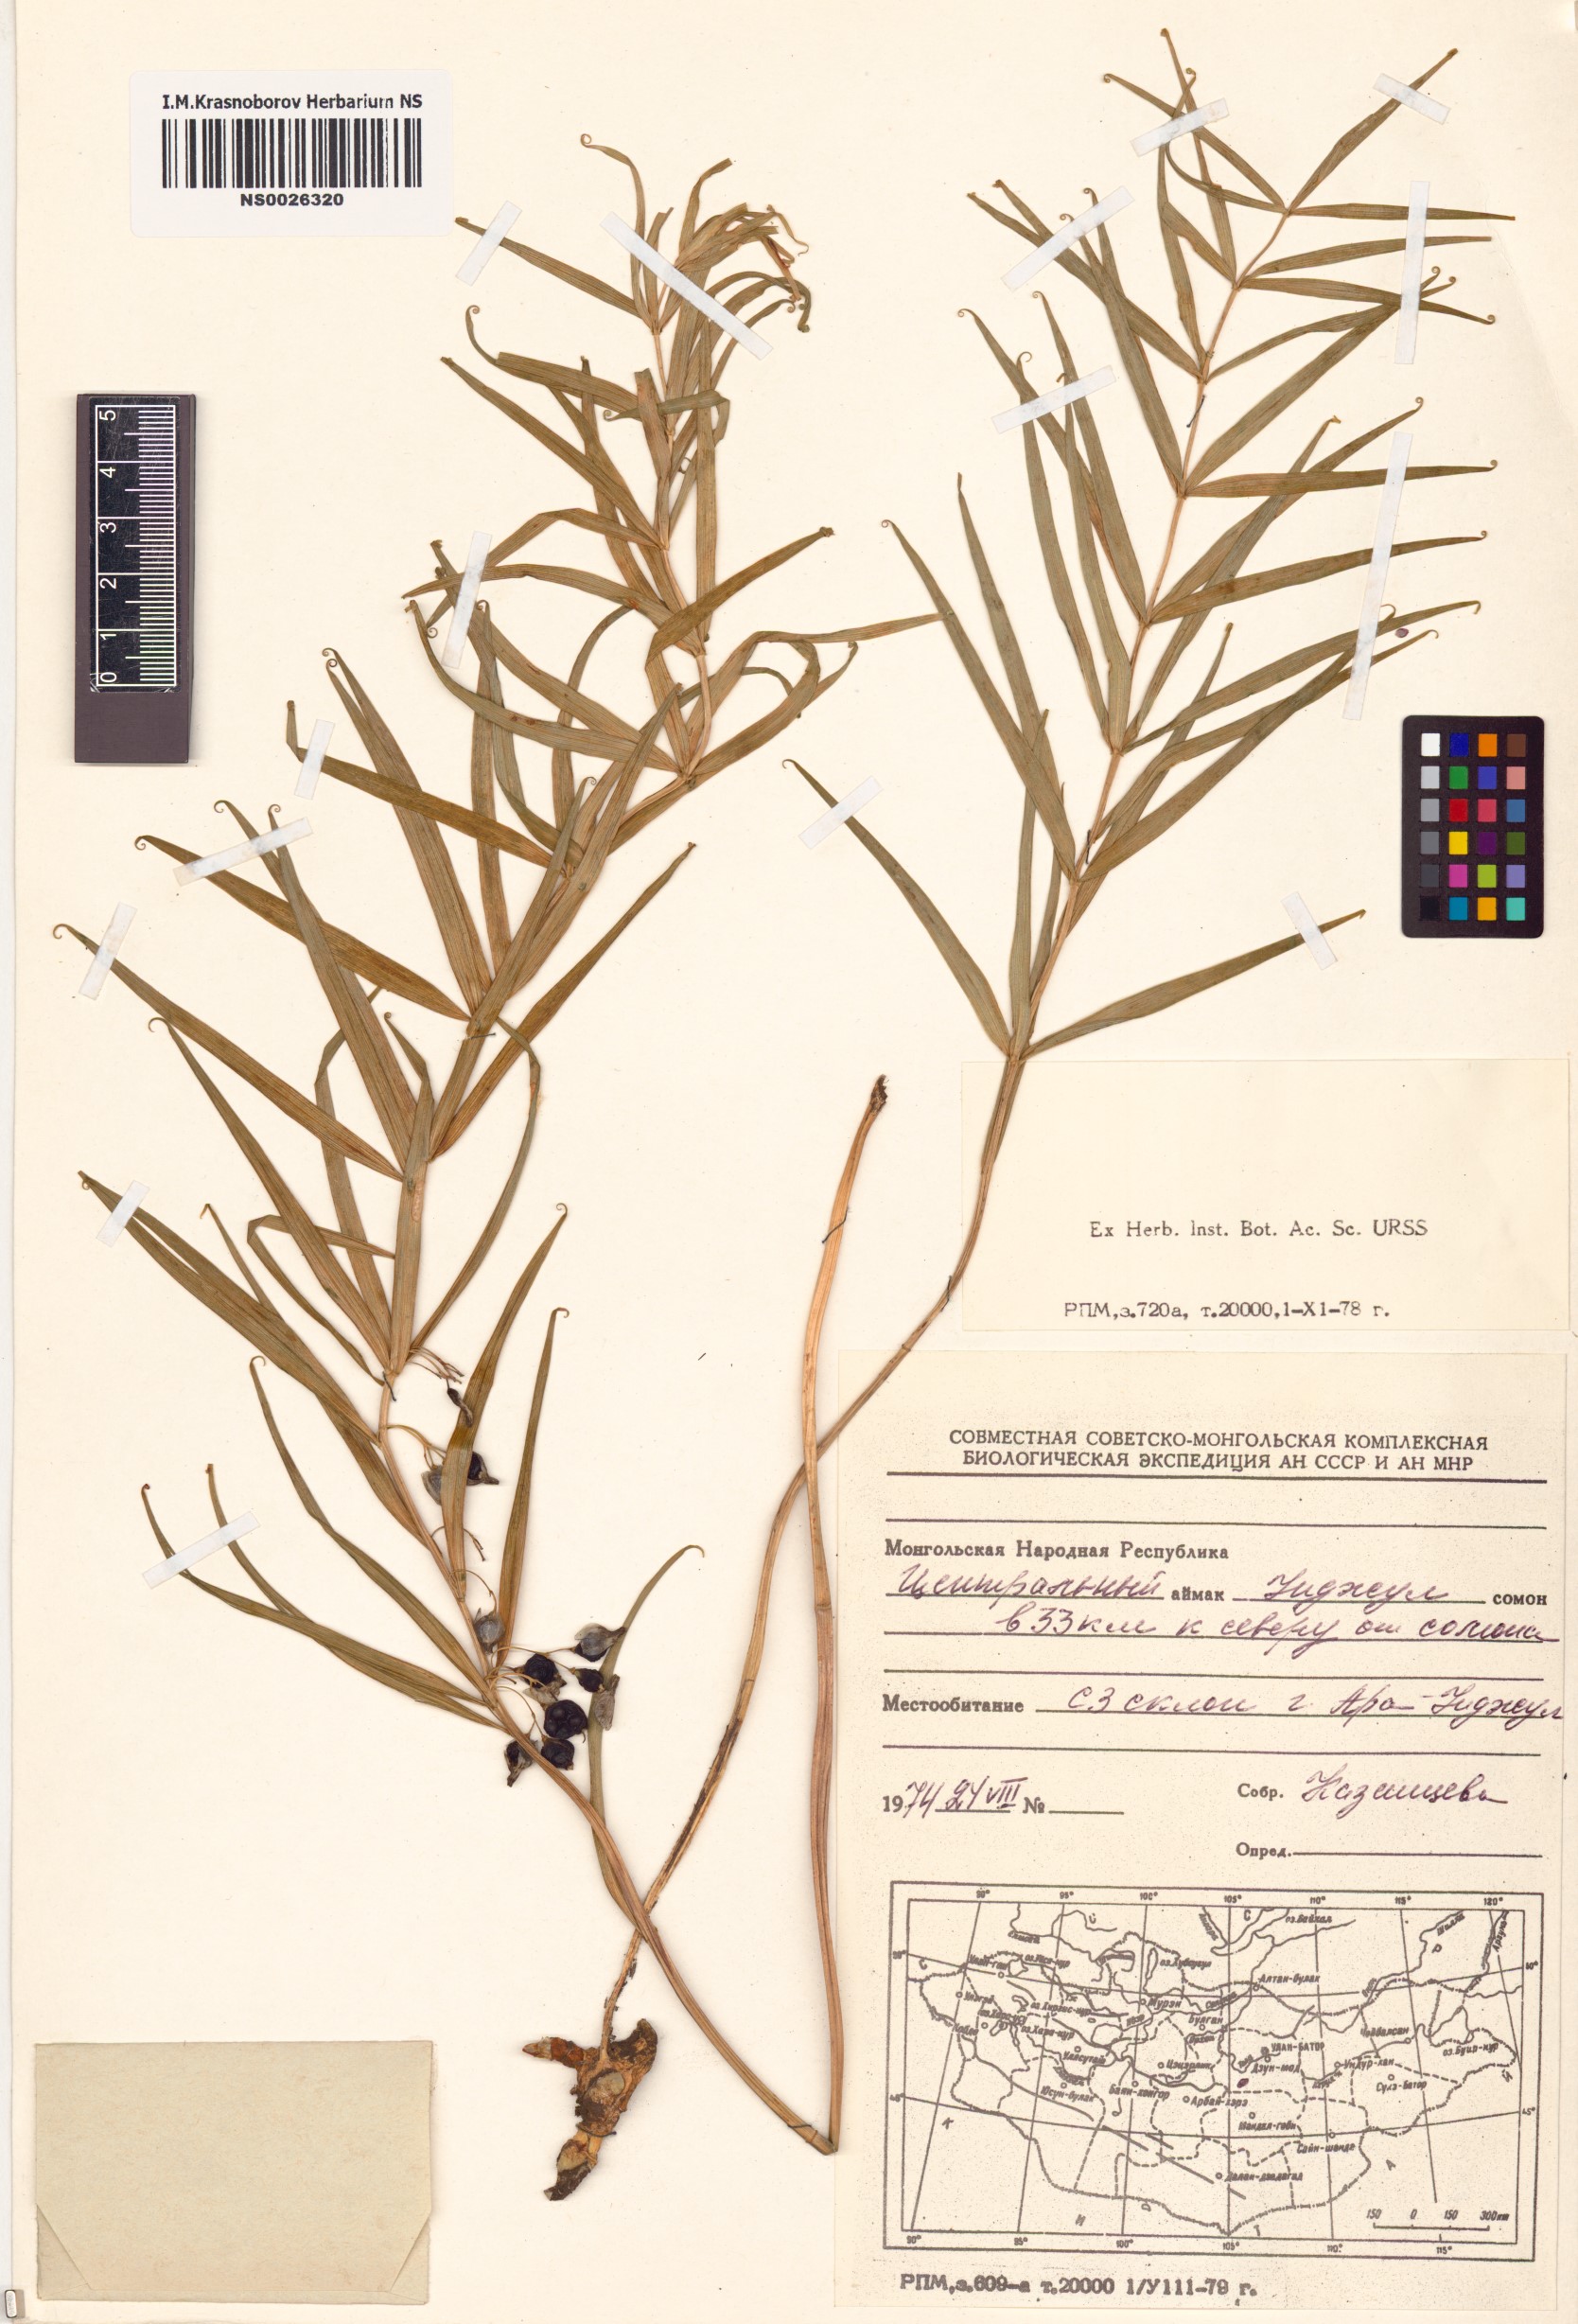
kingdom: Plantae
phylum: Tracheophyta
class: Liliopsida
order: Asparagales
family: Asparagaceae
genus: Polygonatum
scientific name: Polygonatum sibiricum
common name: Siberian solomon's-seal
